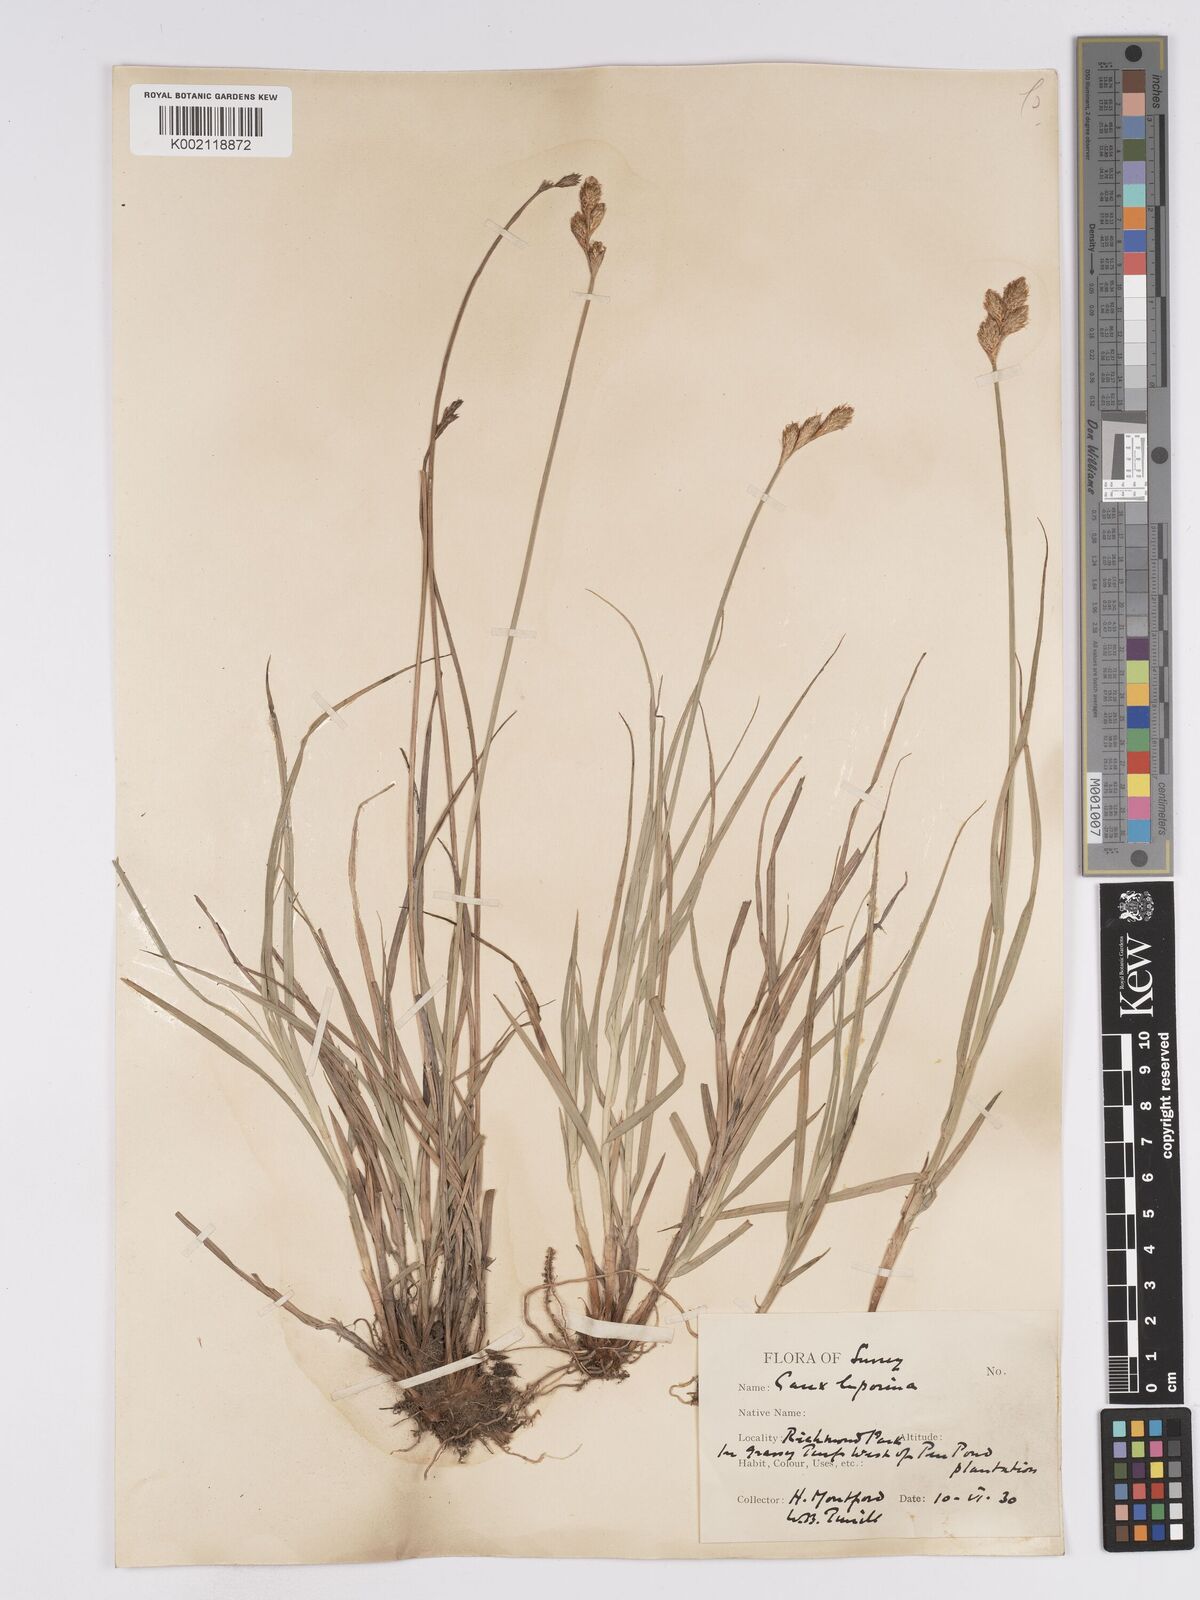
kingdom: Plantae
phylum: Tracheophyta
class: Liliopsida
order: Poales
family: Cyperaceae
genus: Carex
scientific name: Carex leporina
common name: Oval sedge
